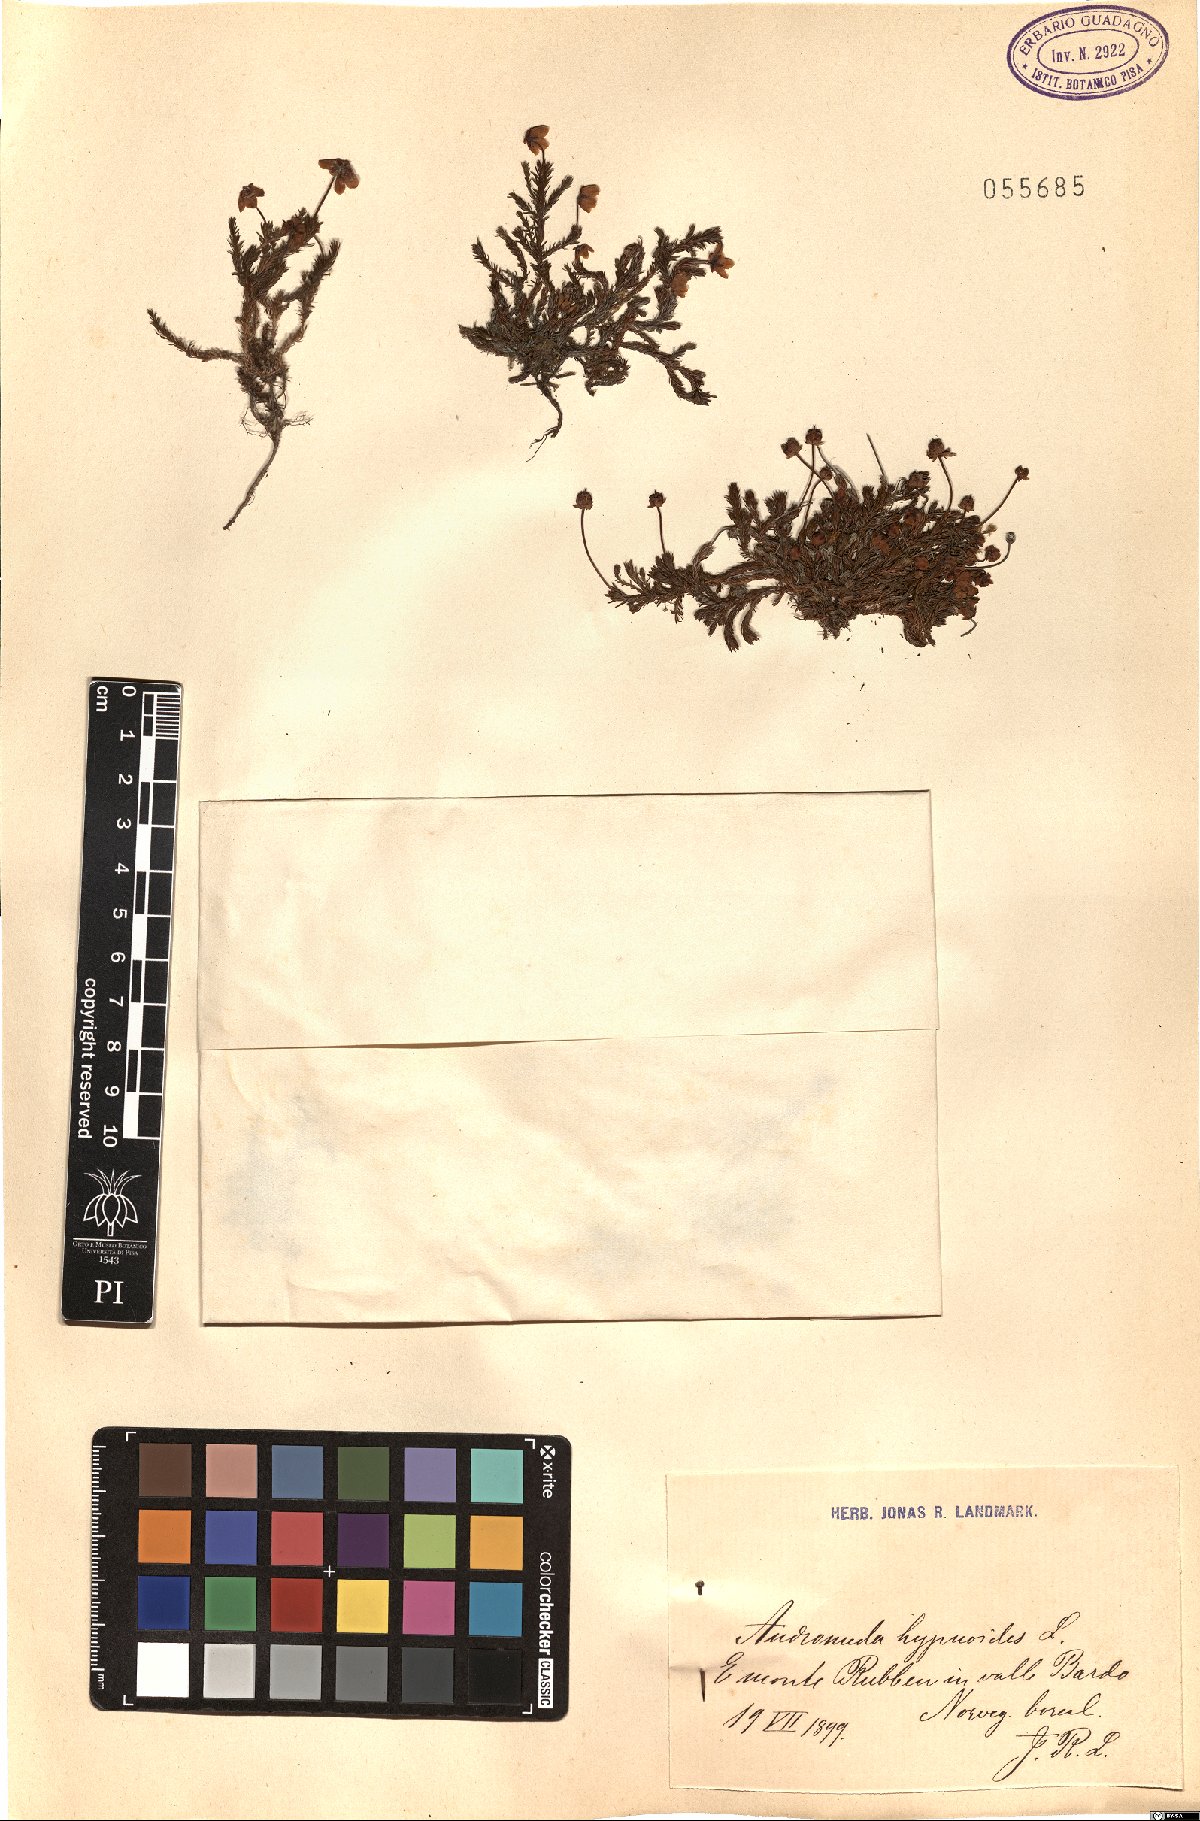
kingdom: Plantae
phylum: Tracheophyta
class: Magnoliopsida
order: Ericales
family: Ericaceae
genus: Harrimanella
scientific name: Harrimanella hypnoides
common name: Moss bell heather
